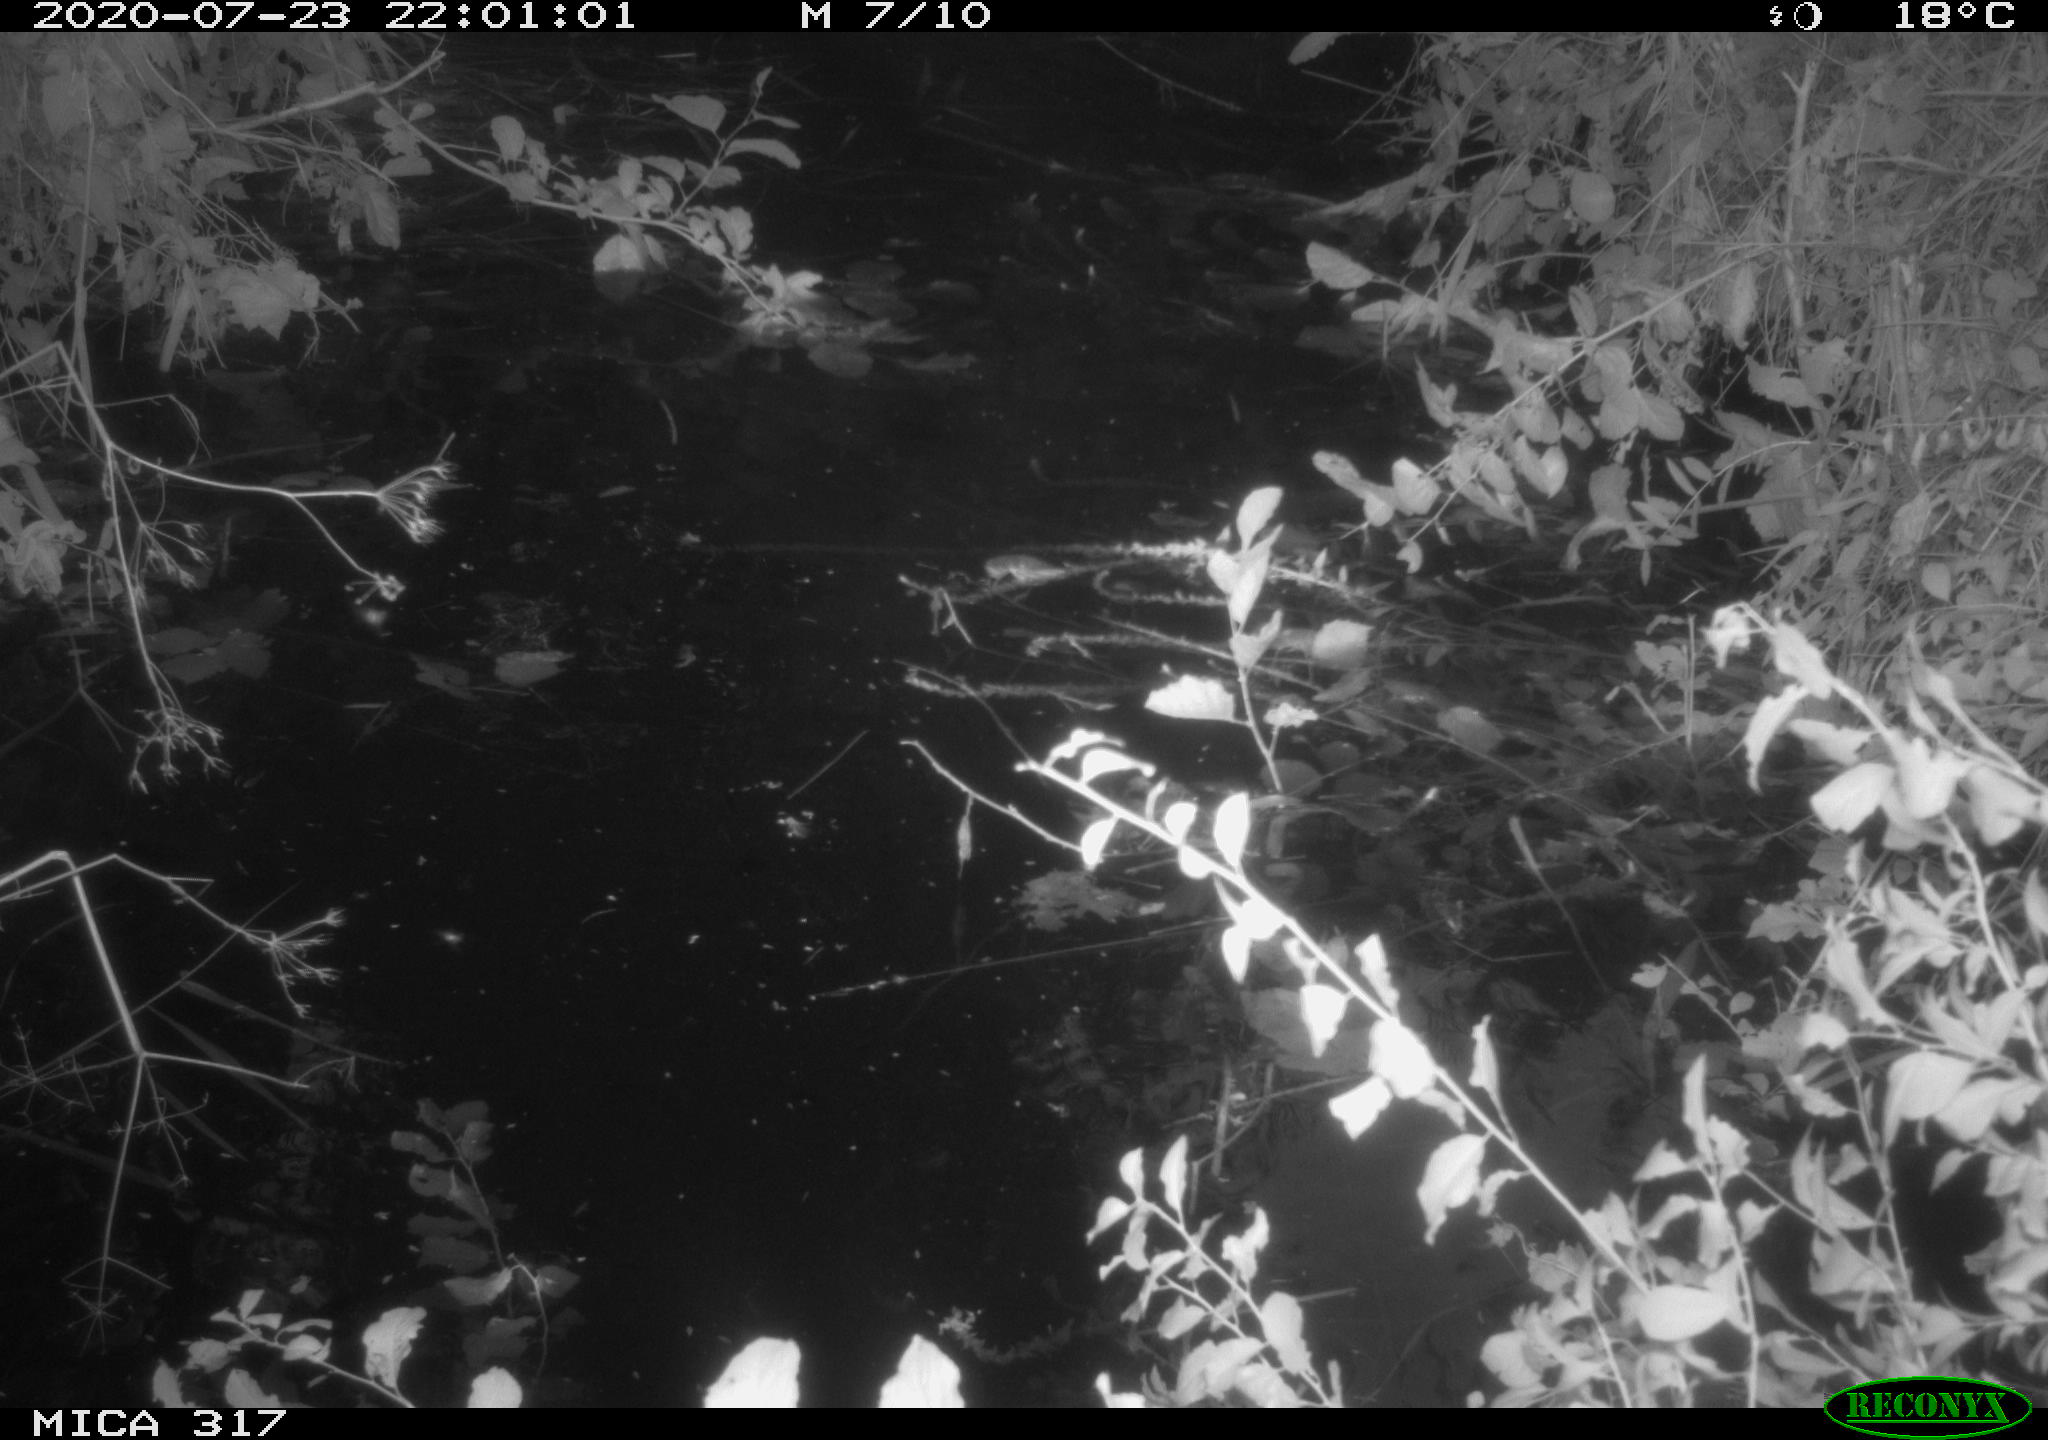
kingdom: Animalia
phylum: Chordata
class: Aves
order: Anseriformes
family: Anatidae
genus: Anas
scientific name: Anas platyrhynchos
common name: Mallard
